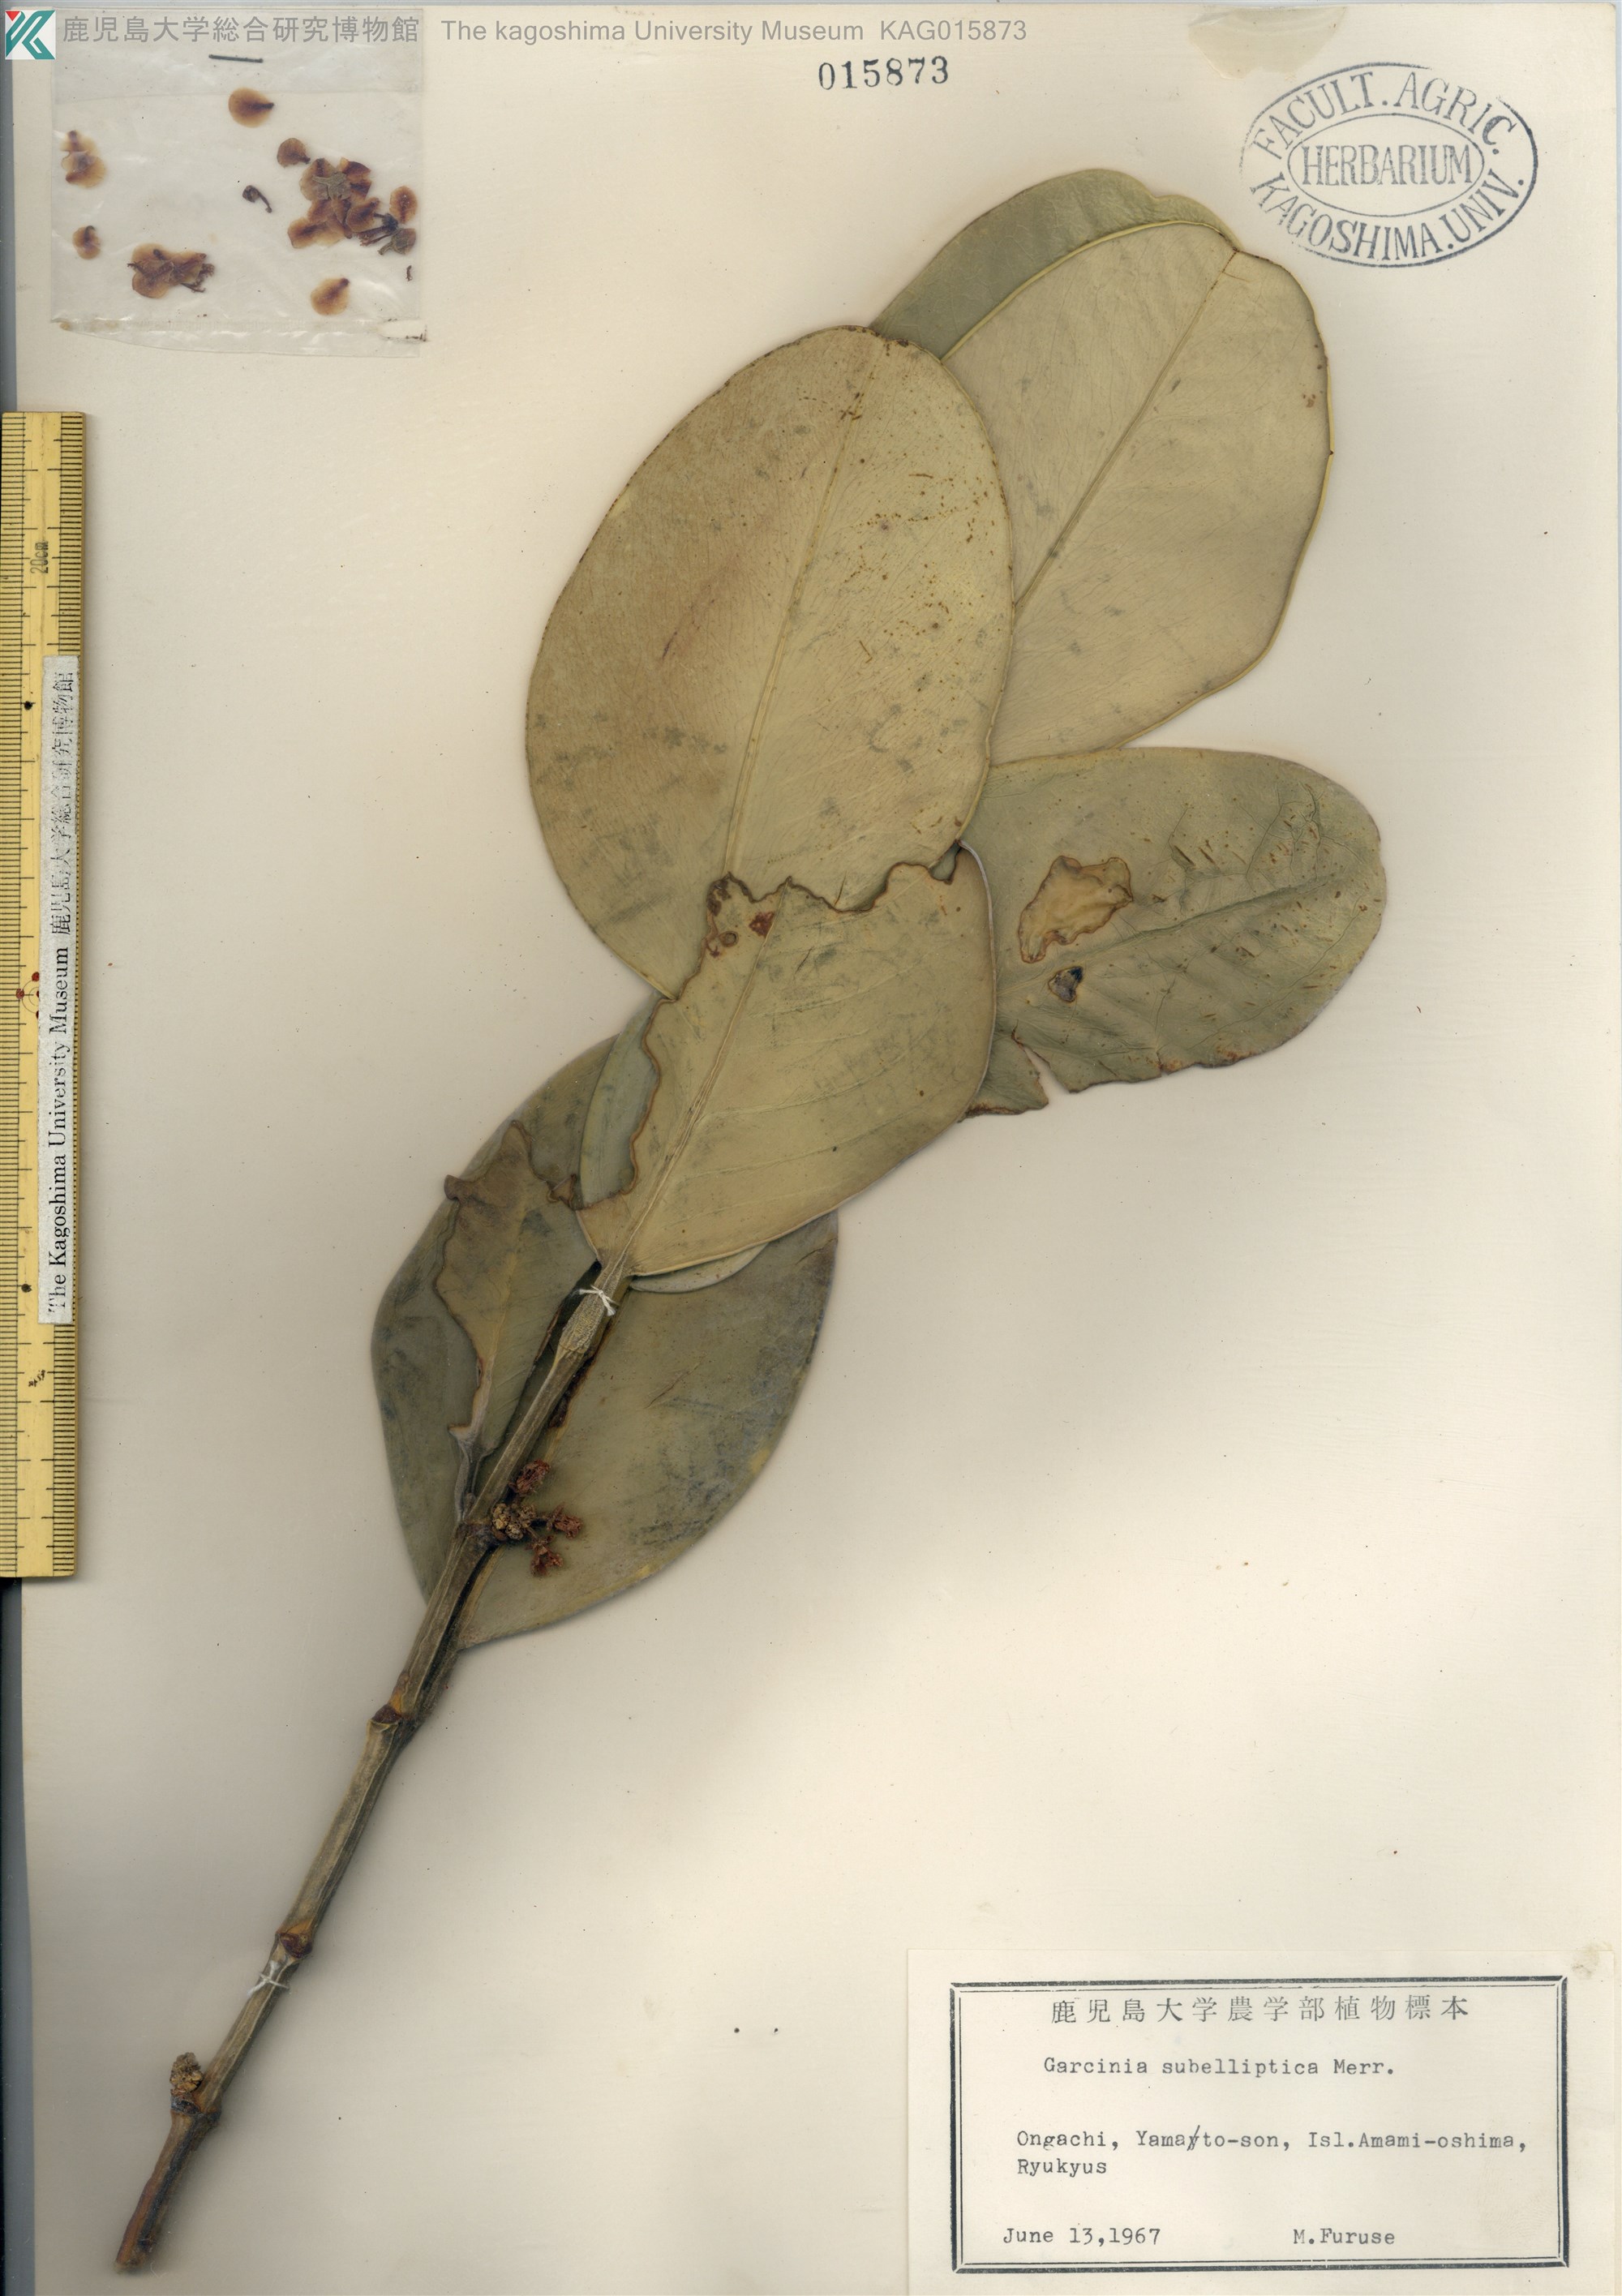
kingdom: Plantae
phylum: Tracheophyta
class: Magnoliopsida
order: Malpighiales
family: Clusiaceae
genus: Garcinia
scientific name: Garcinia subelliptica
